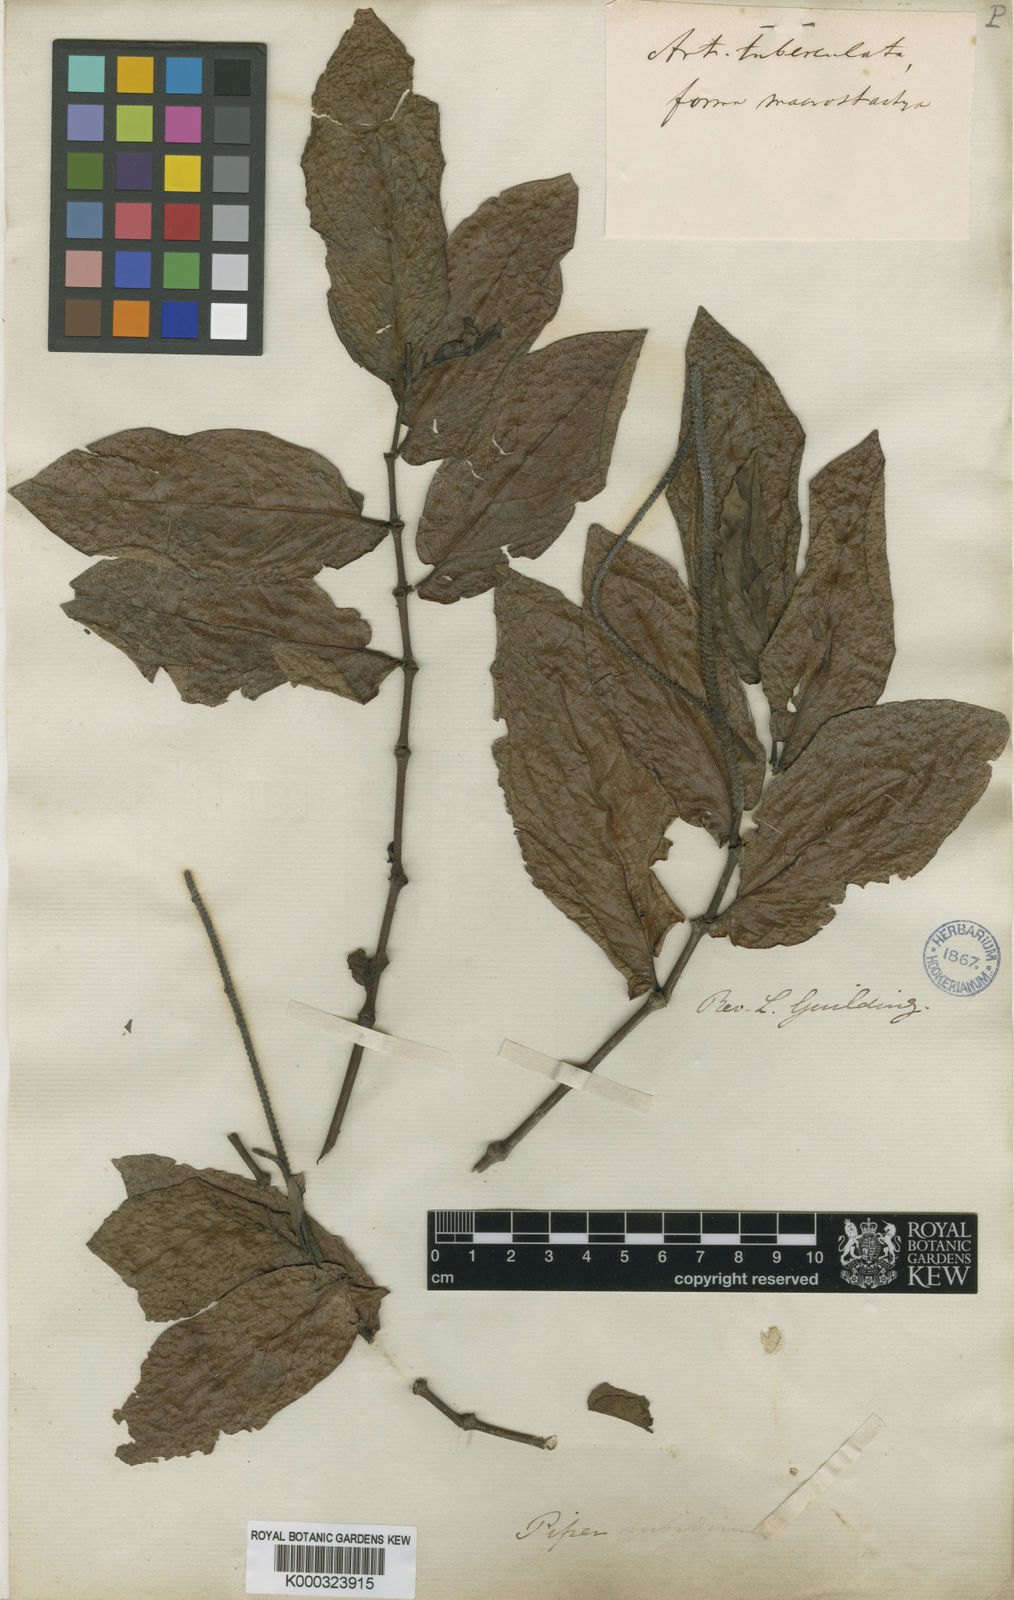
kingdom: Plantae
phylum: Tracheophyta
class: Magnoliopsida
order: Piperales
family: Piperaceae
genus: Piper
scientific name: Piper tuberculatum
